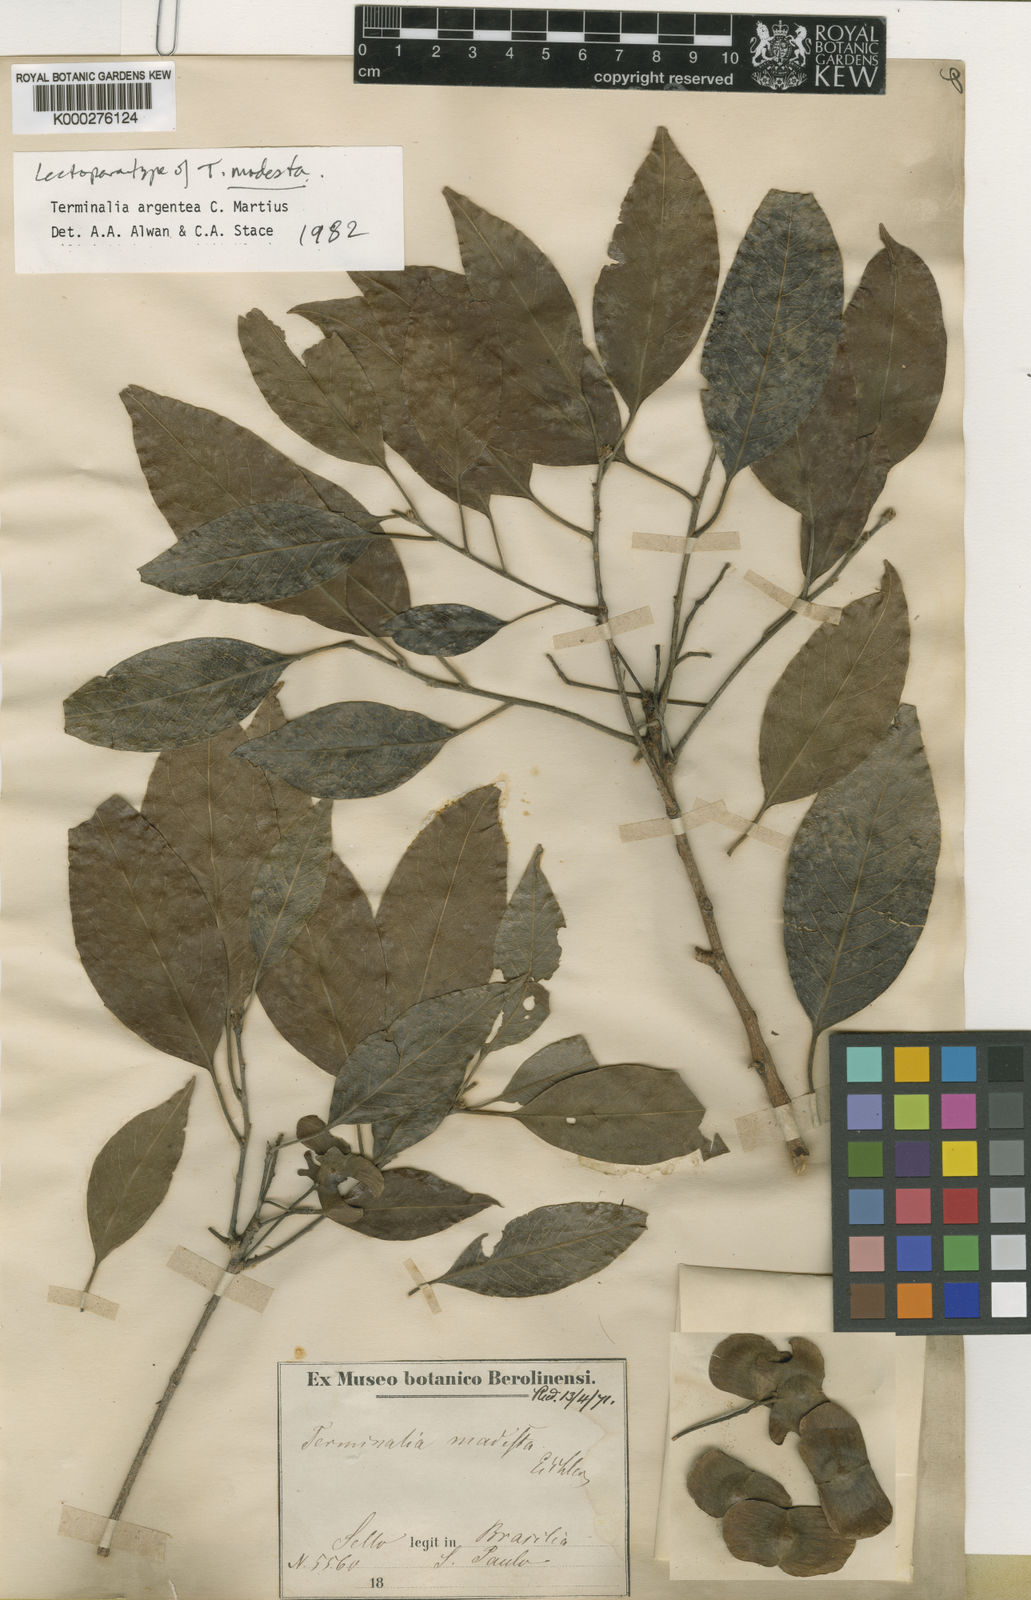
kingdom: Plantae
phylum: Tracheophyta
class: Magnoliopsida
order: Myrtales
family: Combretaceae
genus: Terminalia
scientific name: Terminalia argentea
